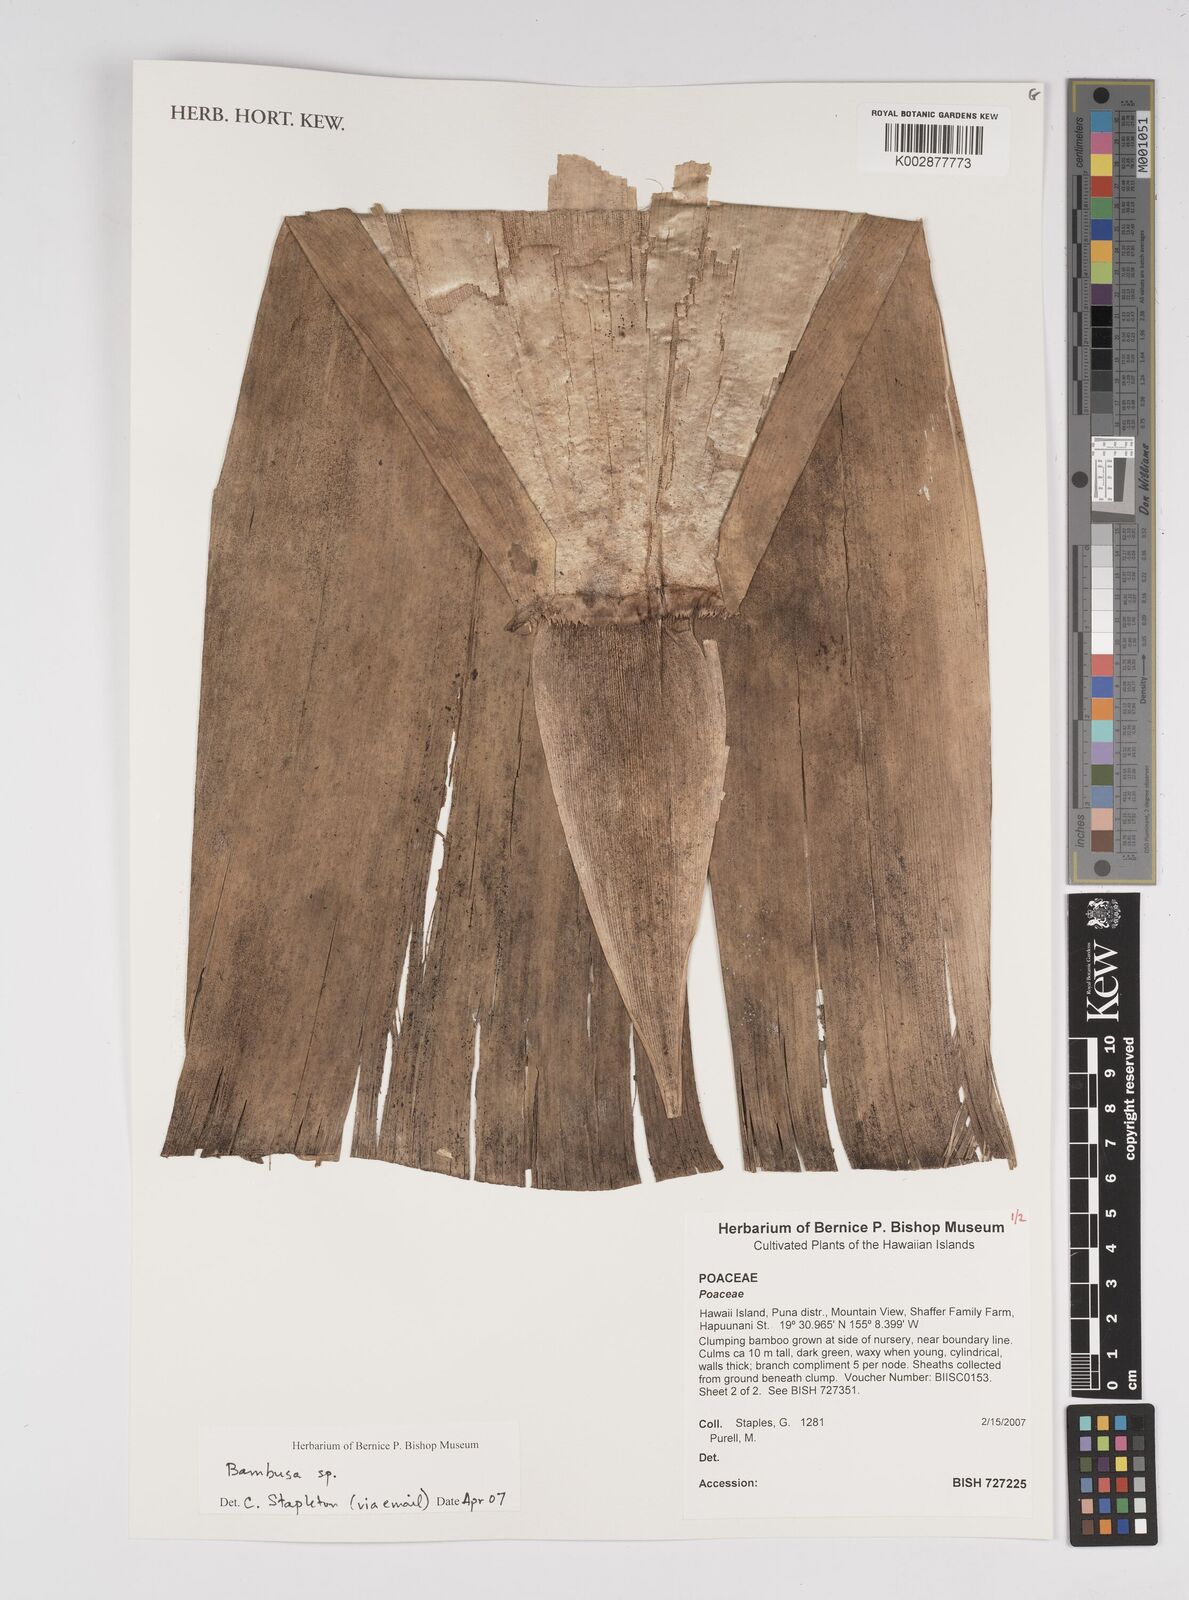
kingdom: Plantae
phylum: Tracheophyta
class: Liliopsida
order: Poales
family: Poaceae
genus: Bambusa
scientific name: Bambusa
